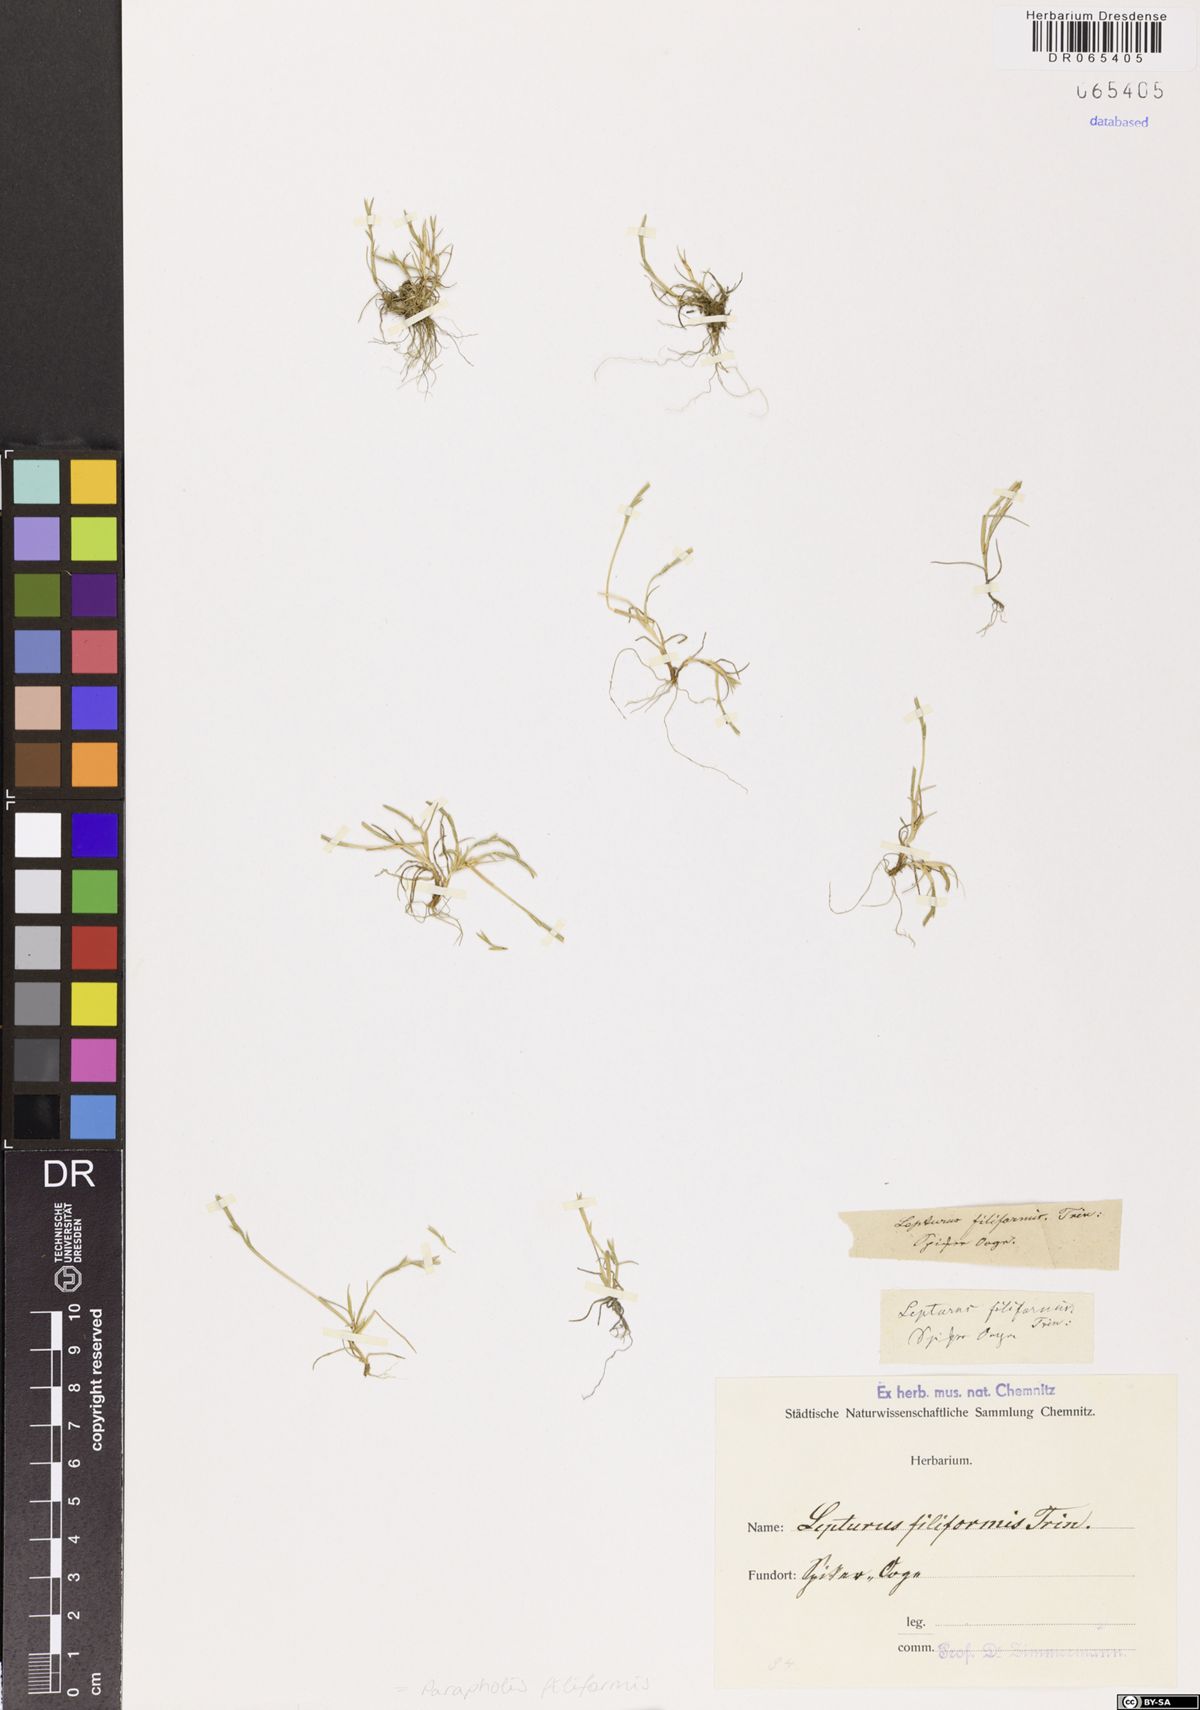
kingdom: Plantae
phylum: Tracheophyta
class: Liliopsida
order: Poales
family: Poaceae
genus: Parapholis
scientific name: Parapholis filiformis
